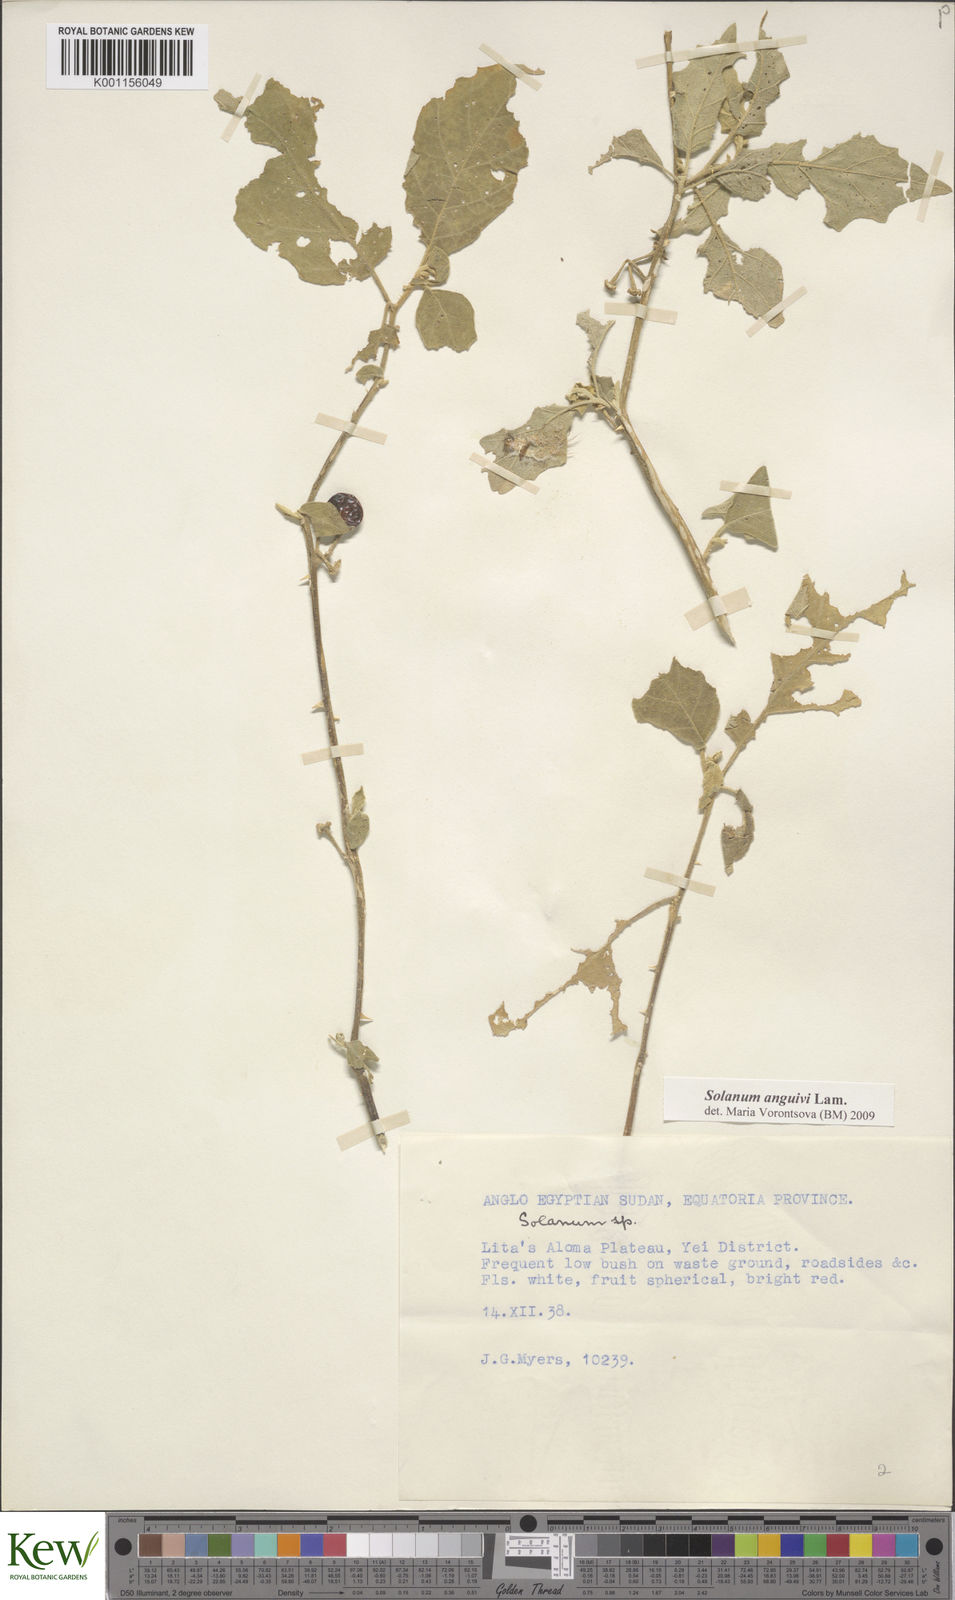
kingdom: Plantae
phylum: Tracheophyta
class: Magnoliopsida
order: Solanales
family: Solanaceae
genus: Solanum
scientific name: Solanum anguivi
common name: Forest bitterberry
